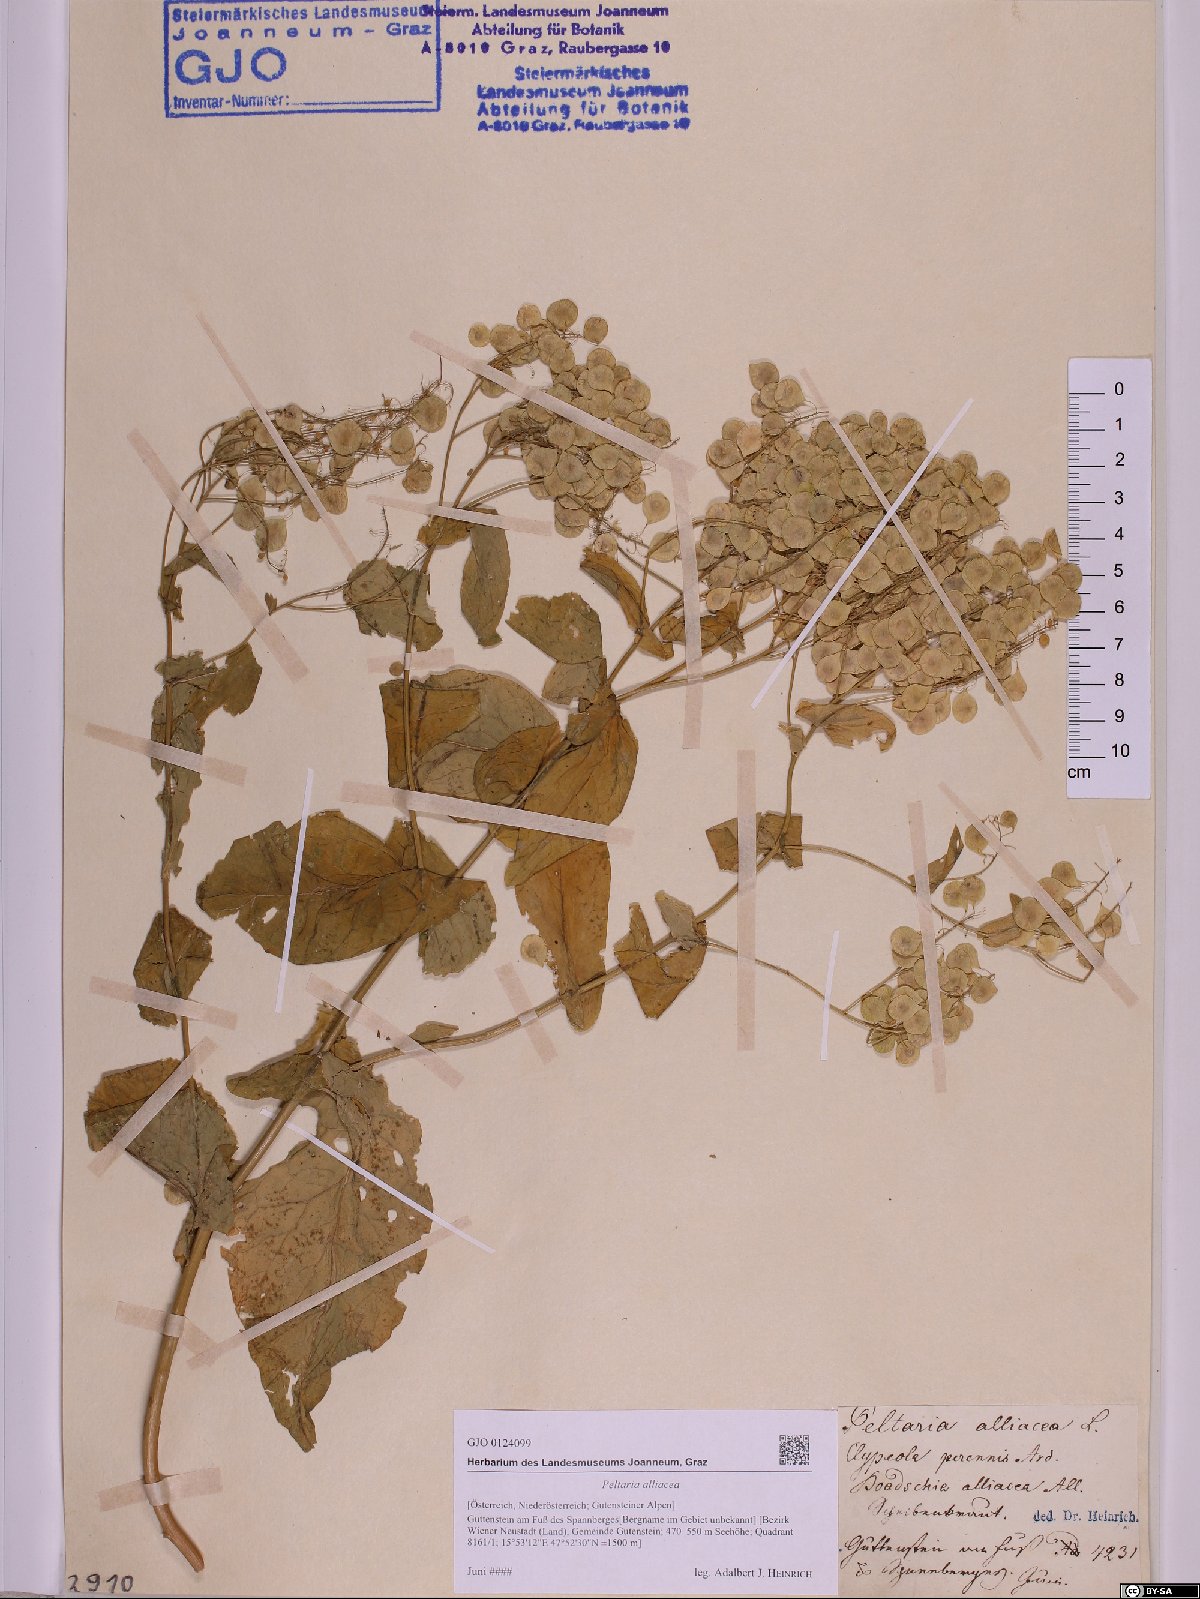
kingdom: Plantae
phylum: Tracheophyta
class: Magnoliopsida
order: Brassicales
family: Brassicaceae
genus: Peltaria
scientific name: Peltaria alliacea
